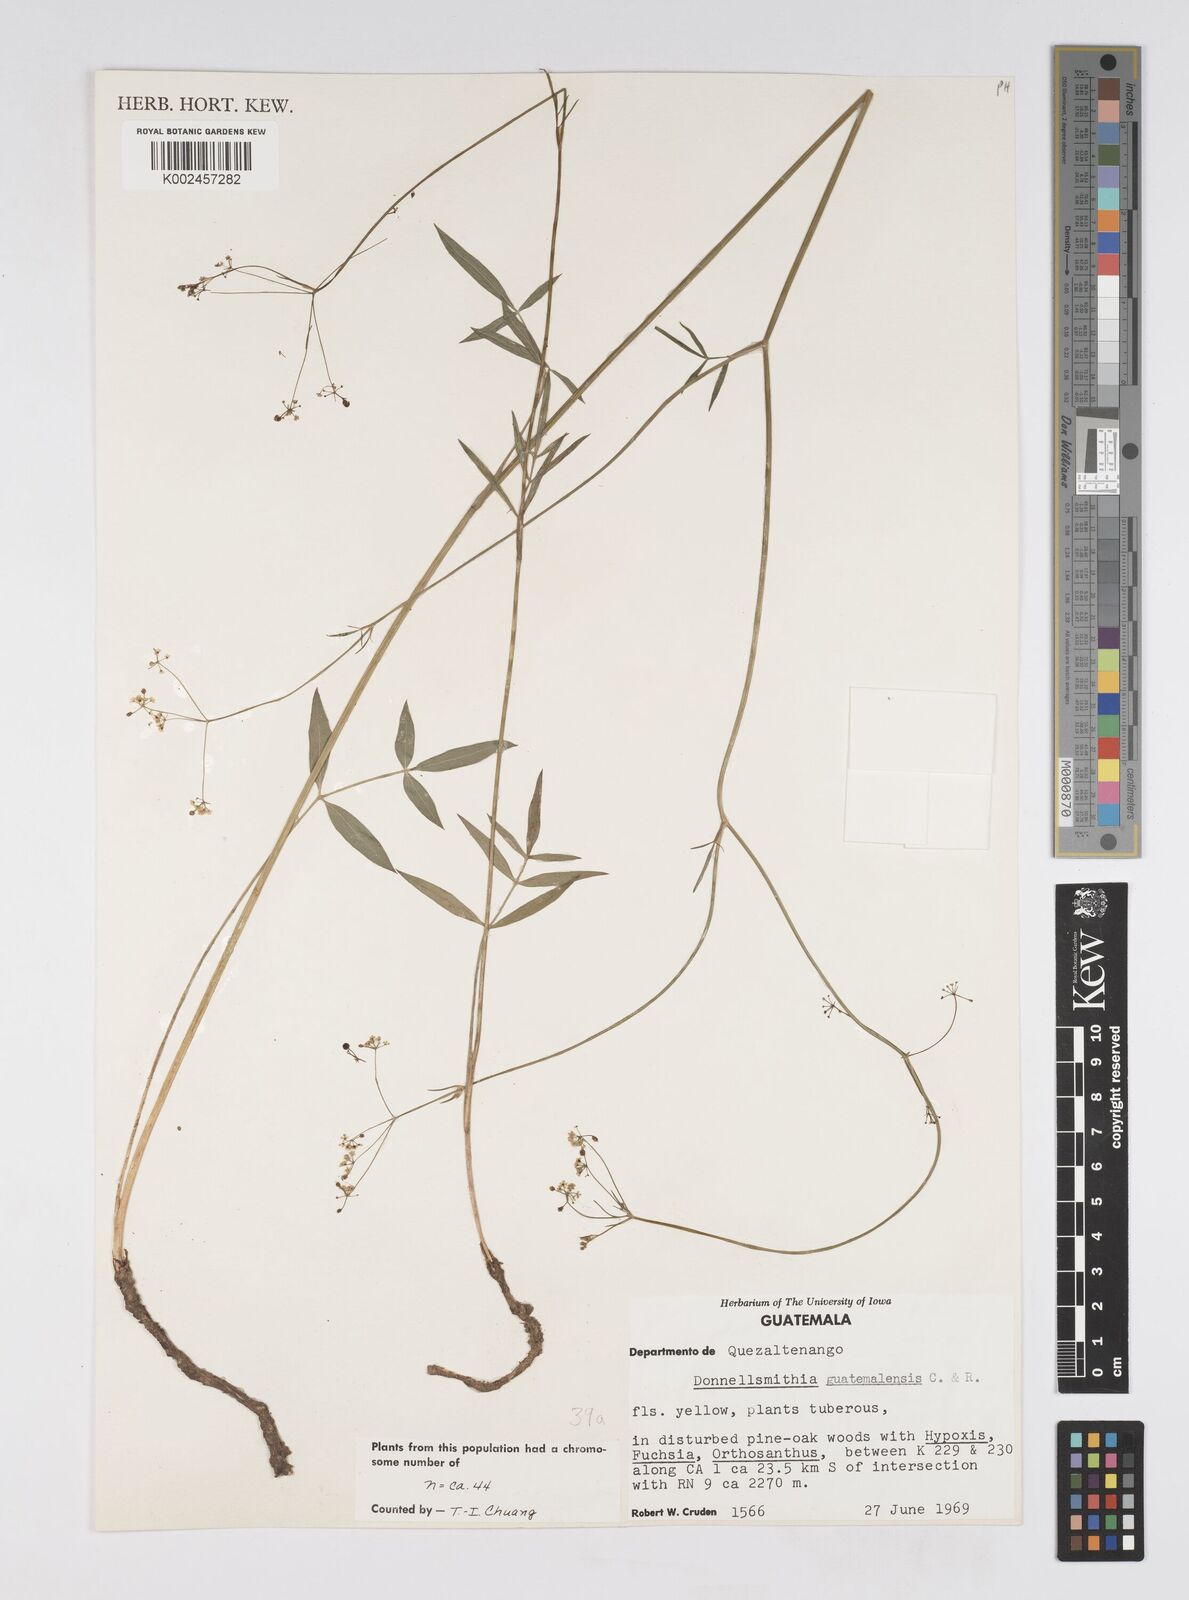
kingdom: Plantae
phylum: Tracheophyta
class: Magnoliopsida
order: Apiales
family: Apiaceae
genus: Donnellsmithia
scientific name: Donnellsmithia guatemalensis
